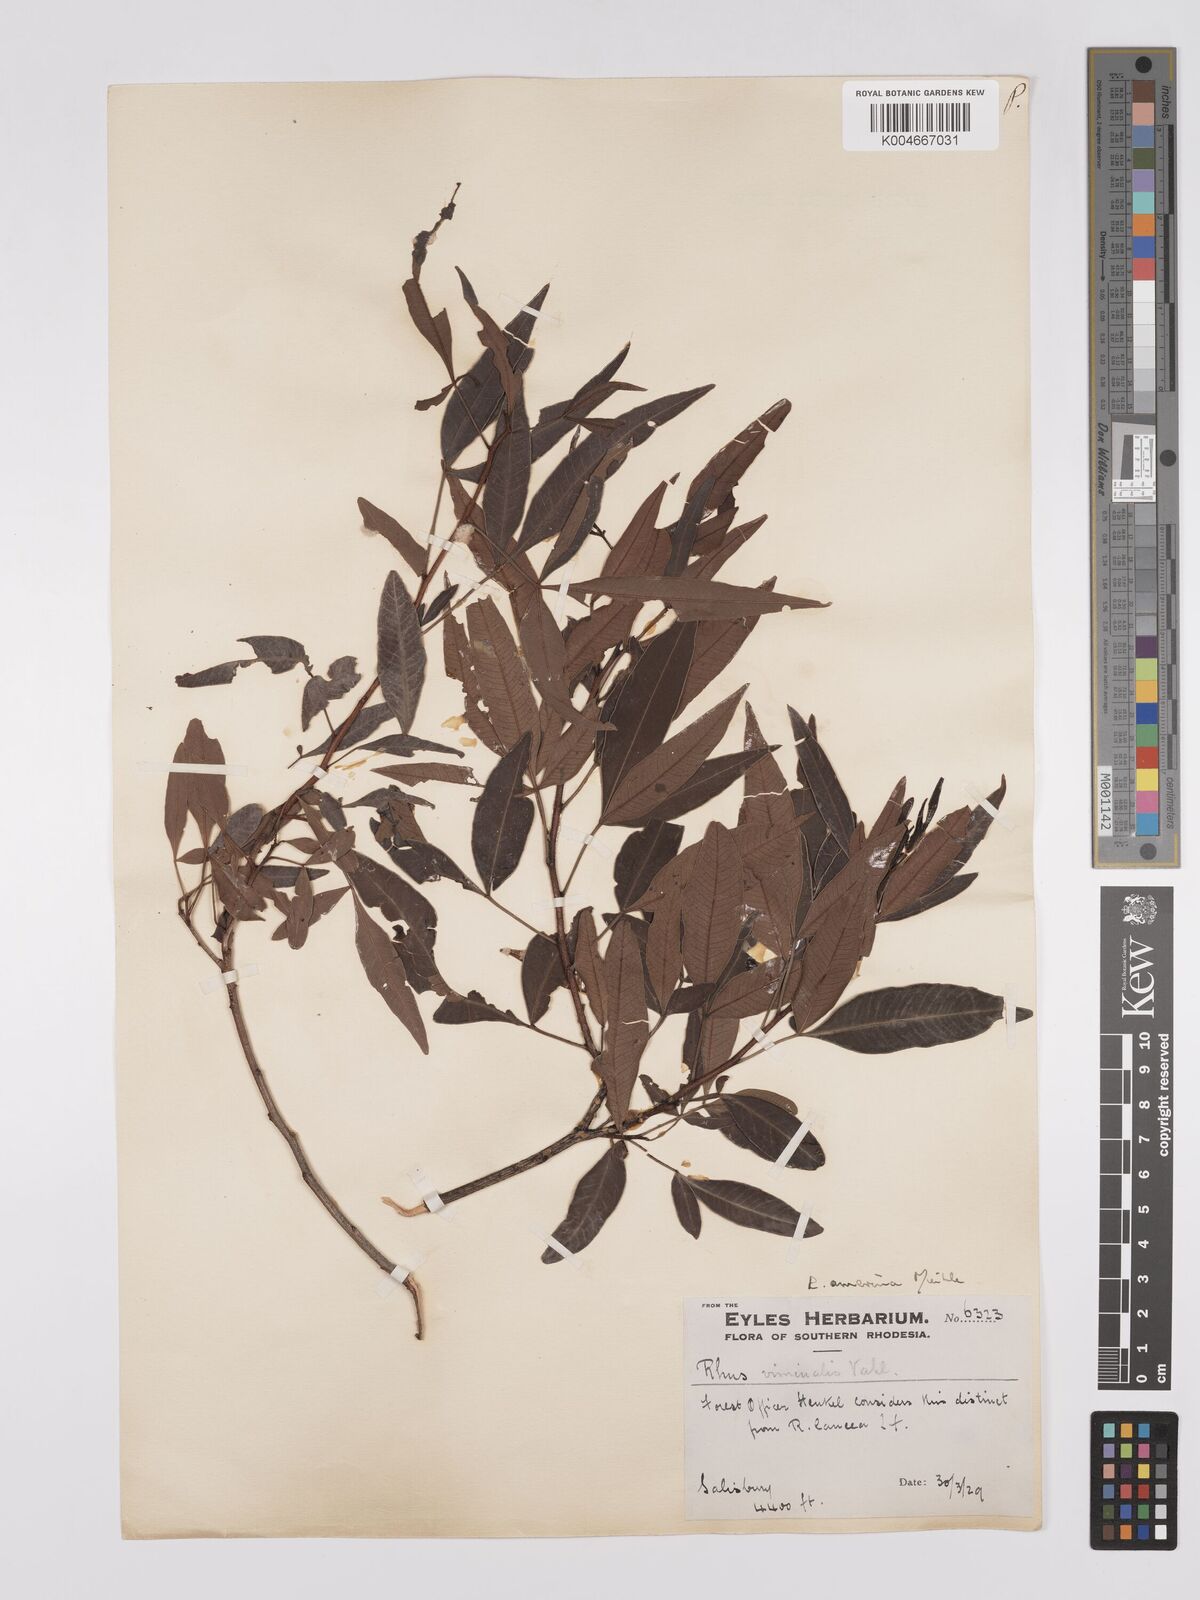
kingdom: Plantae
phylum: Tracheophyta
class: Magnoliopsida
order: Sapindales
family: Anacardiaceae
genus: Searsia
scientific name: Searsia leptodictya
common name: Mountain karee
